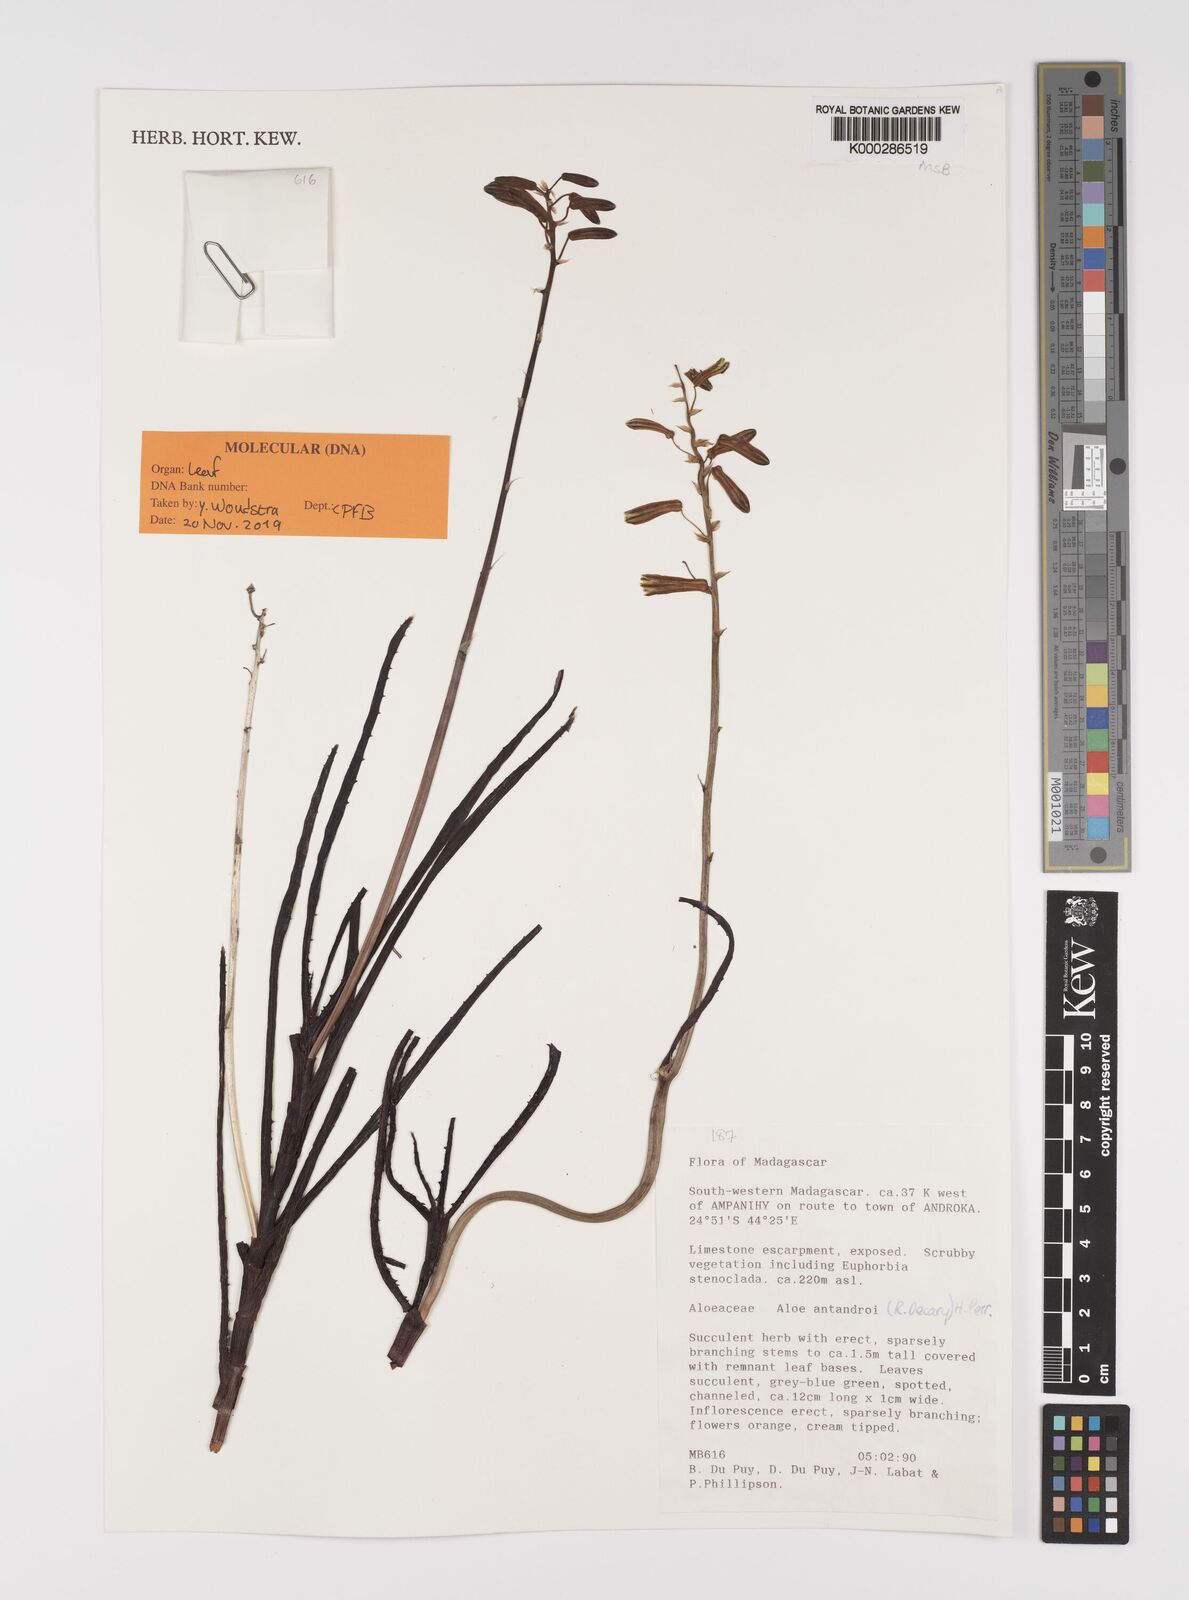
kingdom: Plantae
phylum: Tracheophyta
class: Liliopsida
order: Asparagales
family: Asphodelaceae
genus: Aloe
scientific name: Aloe
